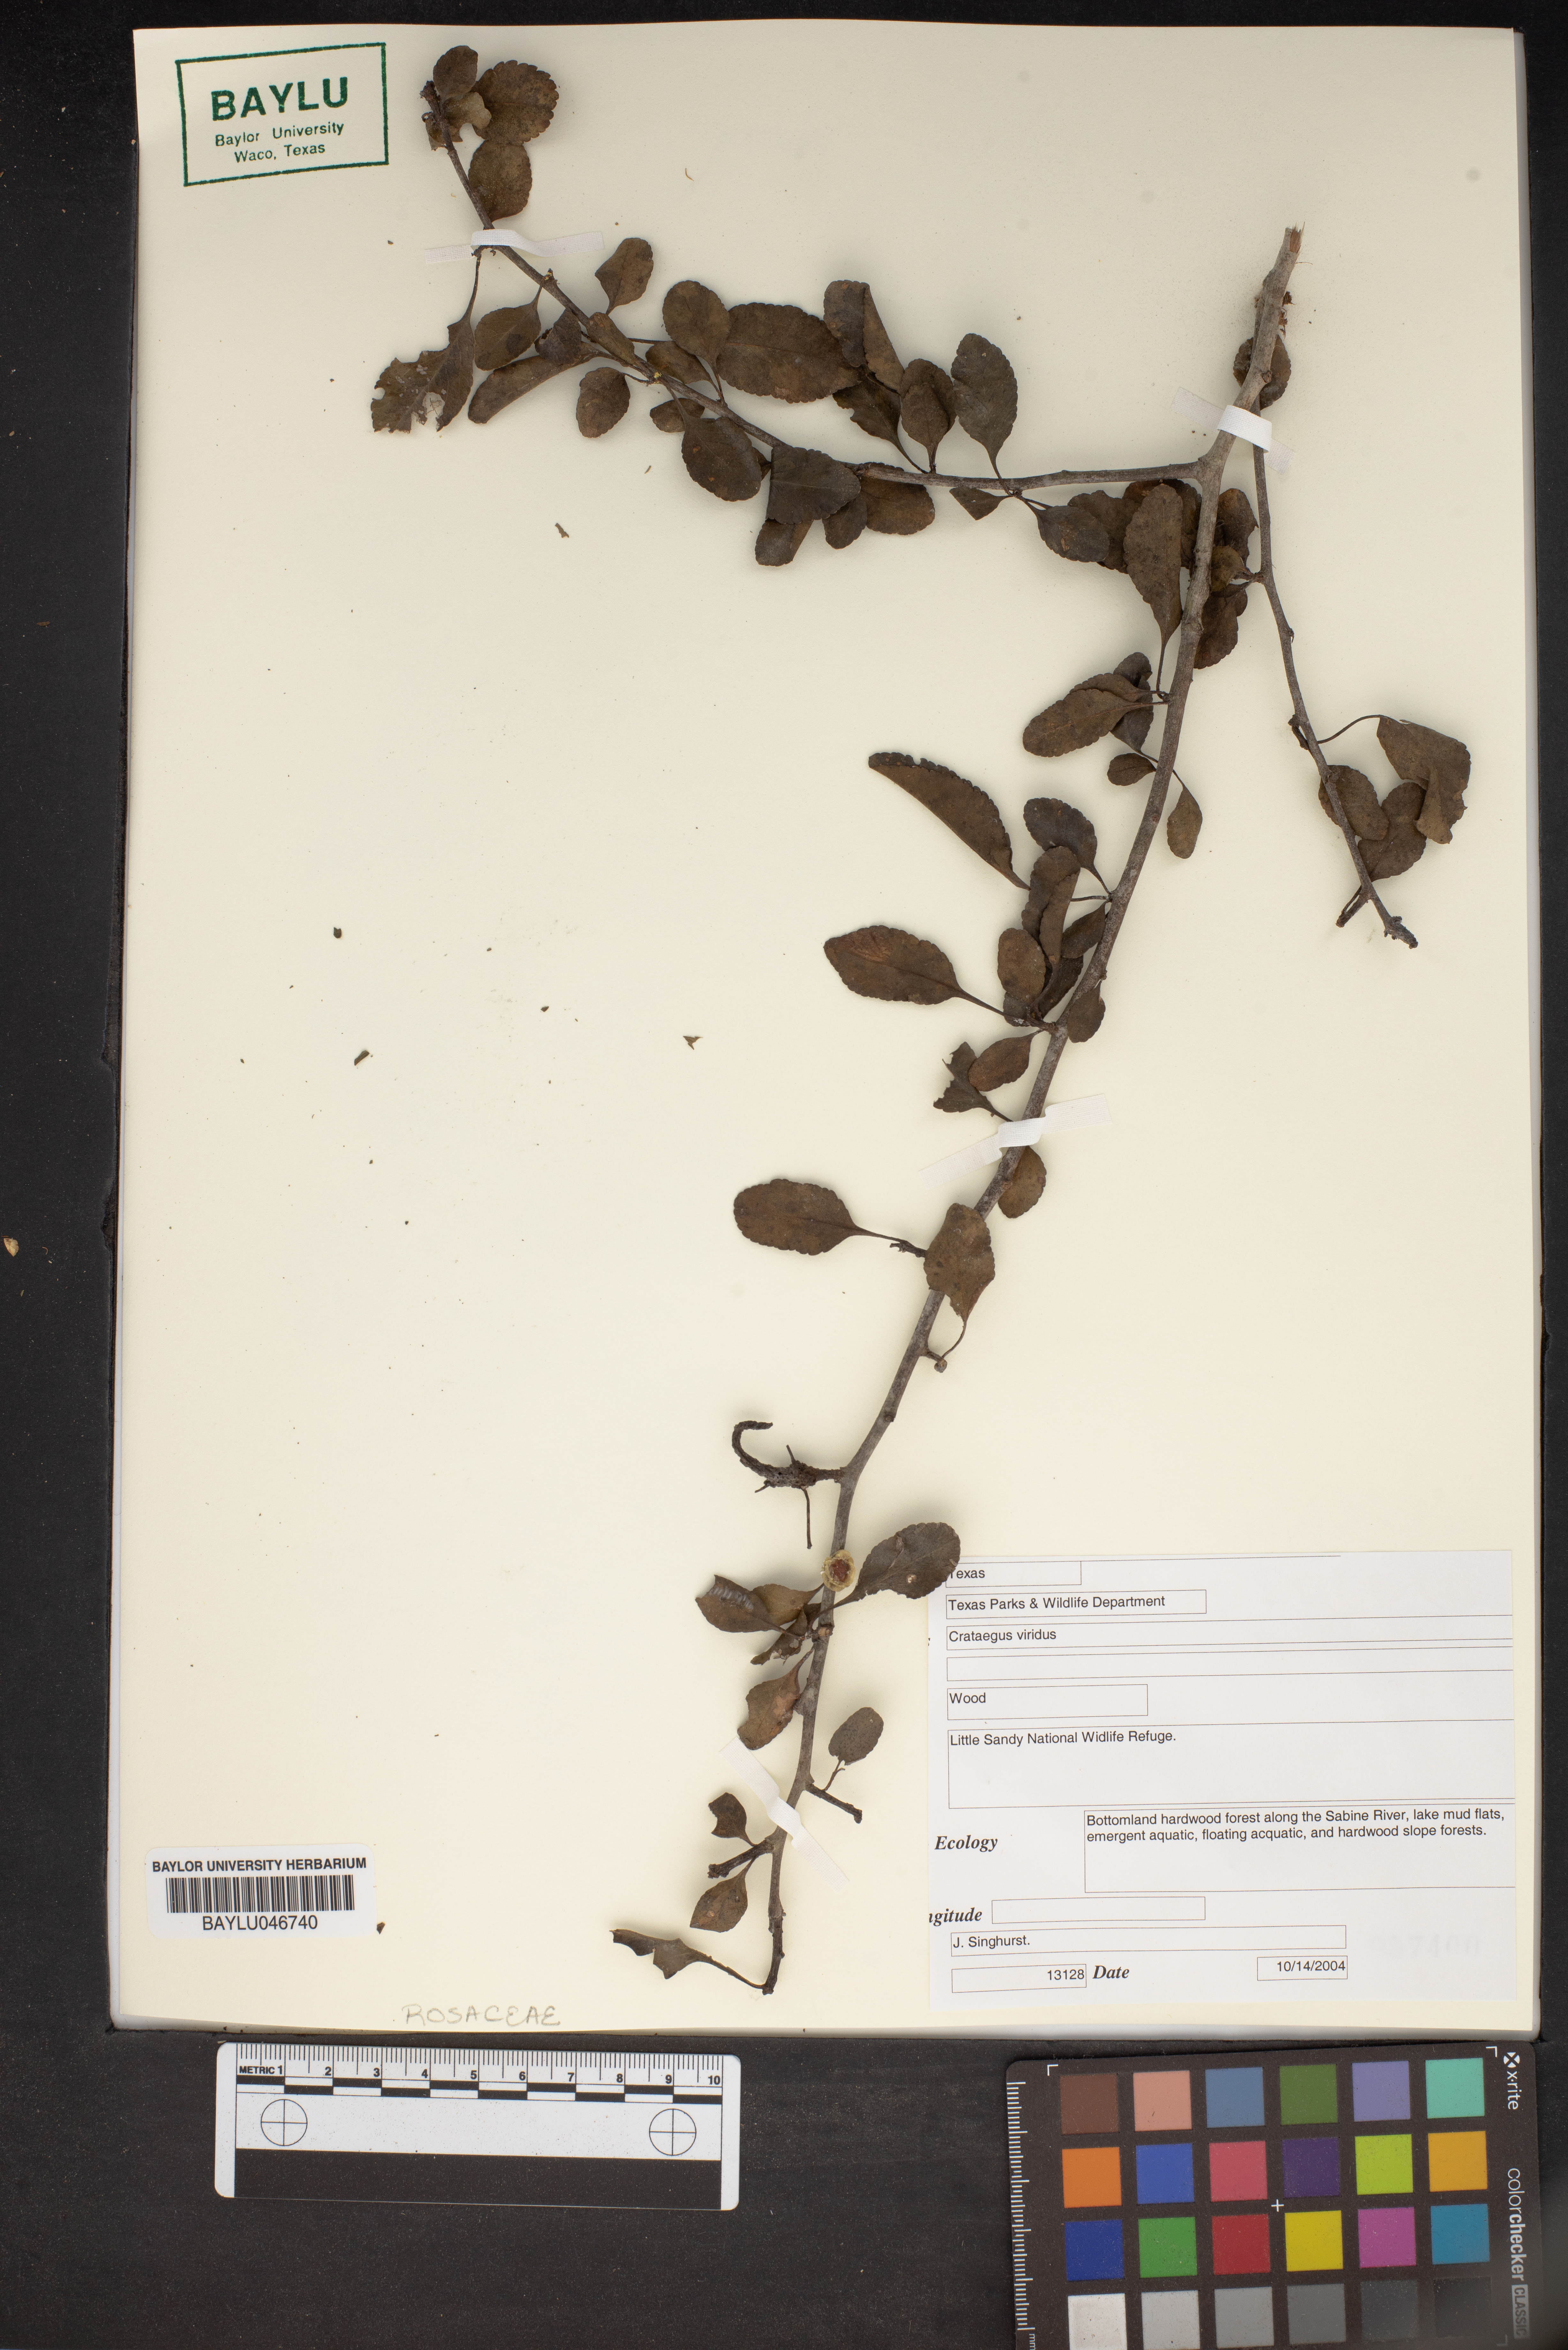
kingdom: Plantae
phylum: Tracheophyta
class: Magnoliopsida
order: Rosales
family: Rosaceae
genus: Crataegus
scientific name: Crataegus viridis
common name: Southernthorn
